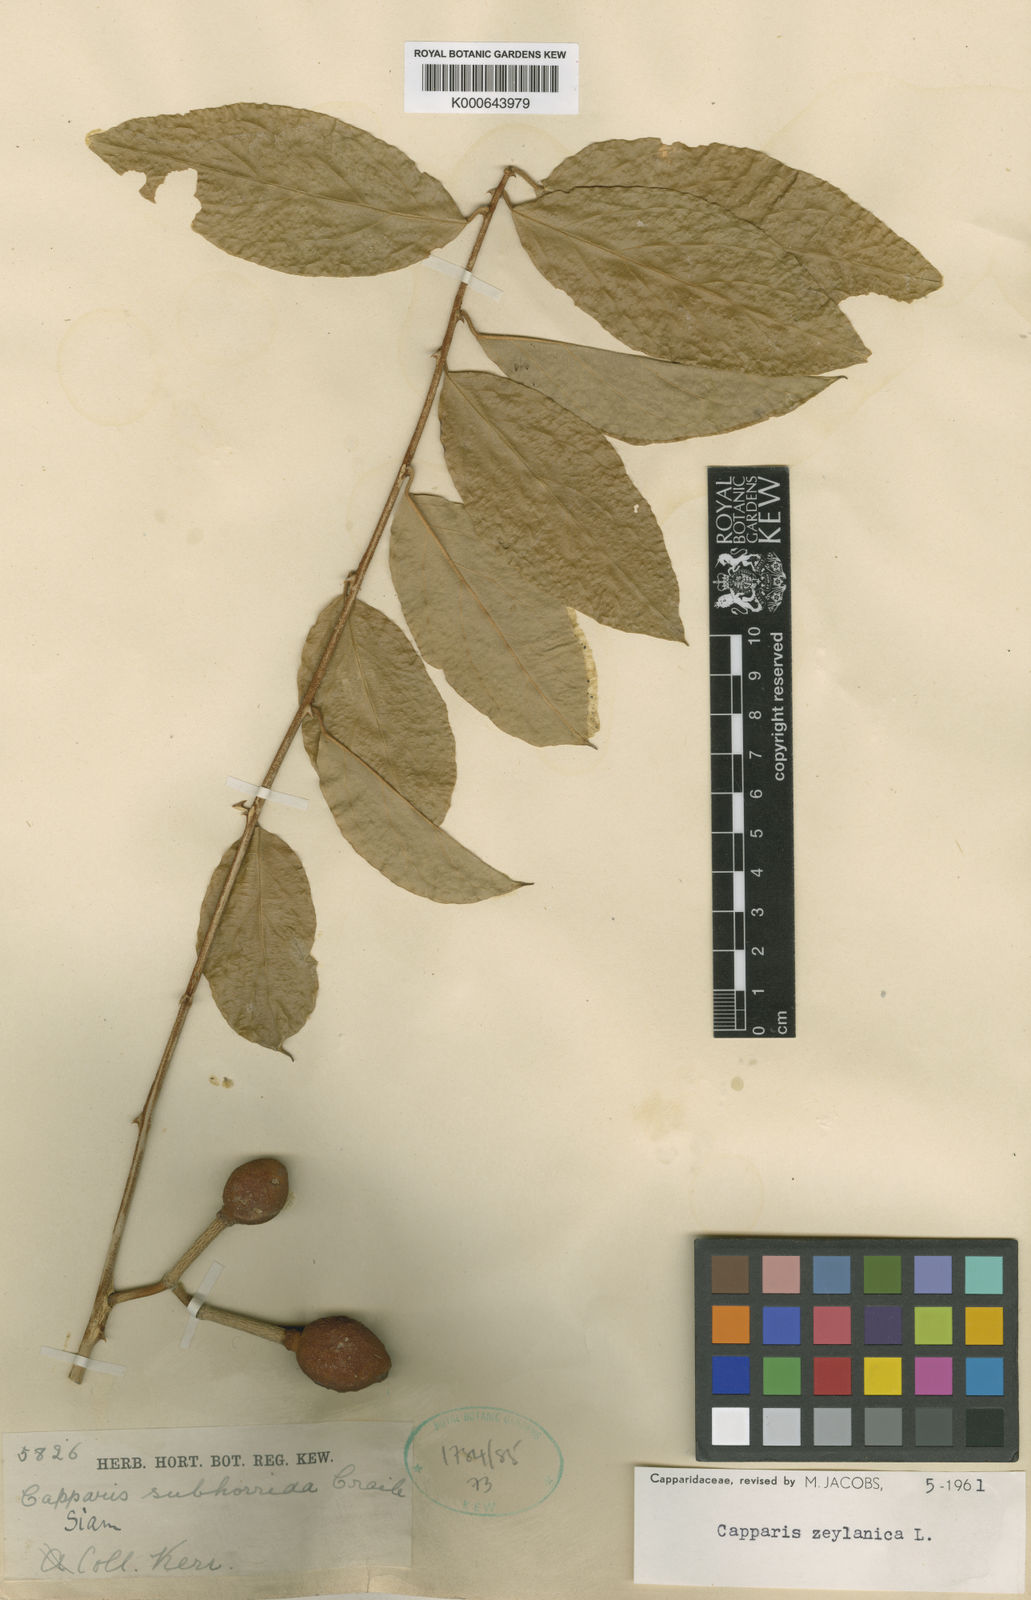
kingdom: Plantae
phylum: Tracheophyta
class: Magnoliopsida
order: Brassicales
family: Capparaceae
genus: Capparis
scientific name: Capparis zeylanica
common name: Ceylon caper
